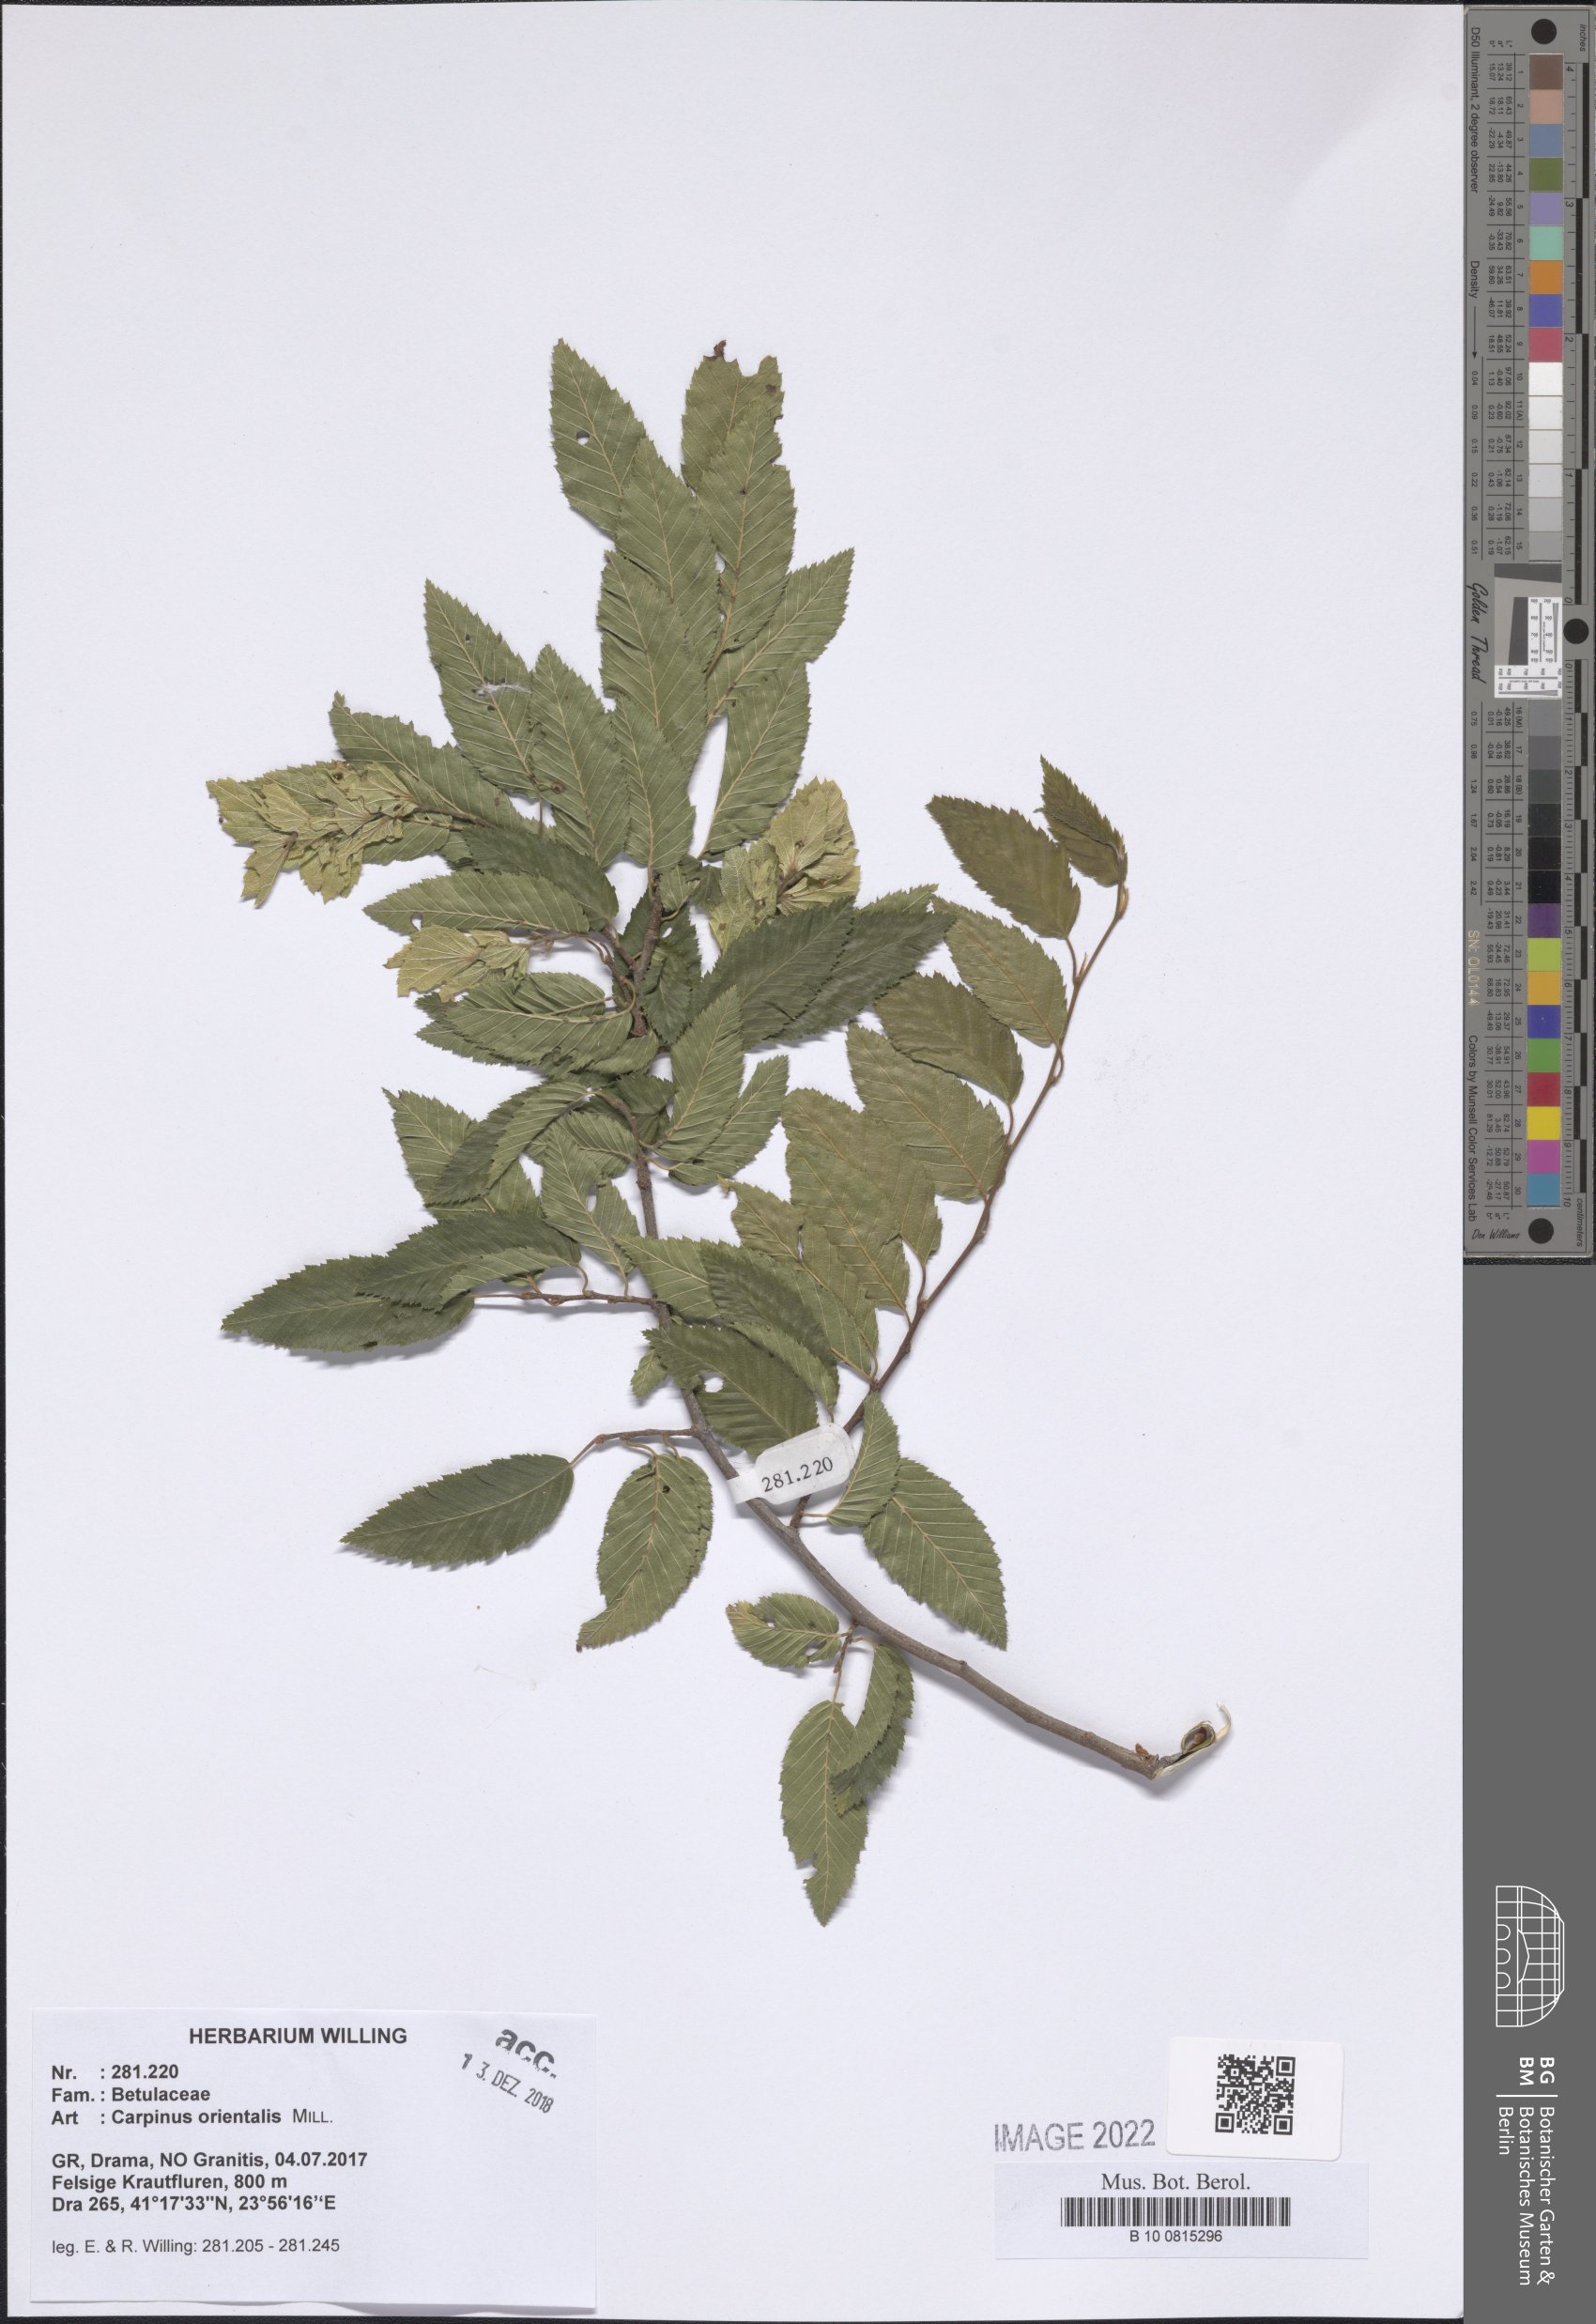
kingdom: Plantae
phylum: Tracheophyta
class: Magnoliopsida
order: Fagales
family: Betulaceae
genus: Carpinus
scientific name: Carpinus orientalis
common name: Eastern hornbeam
